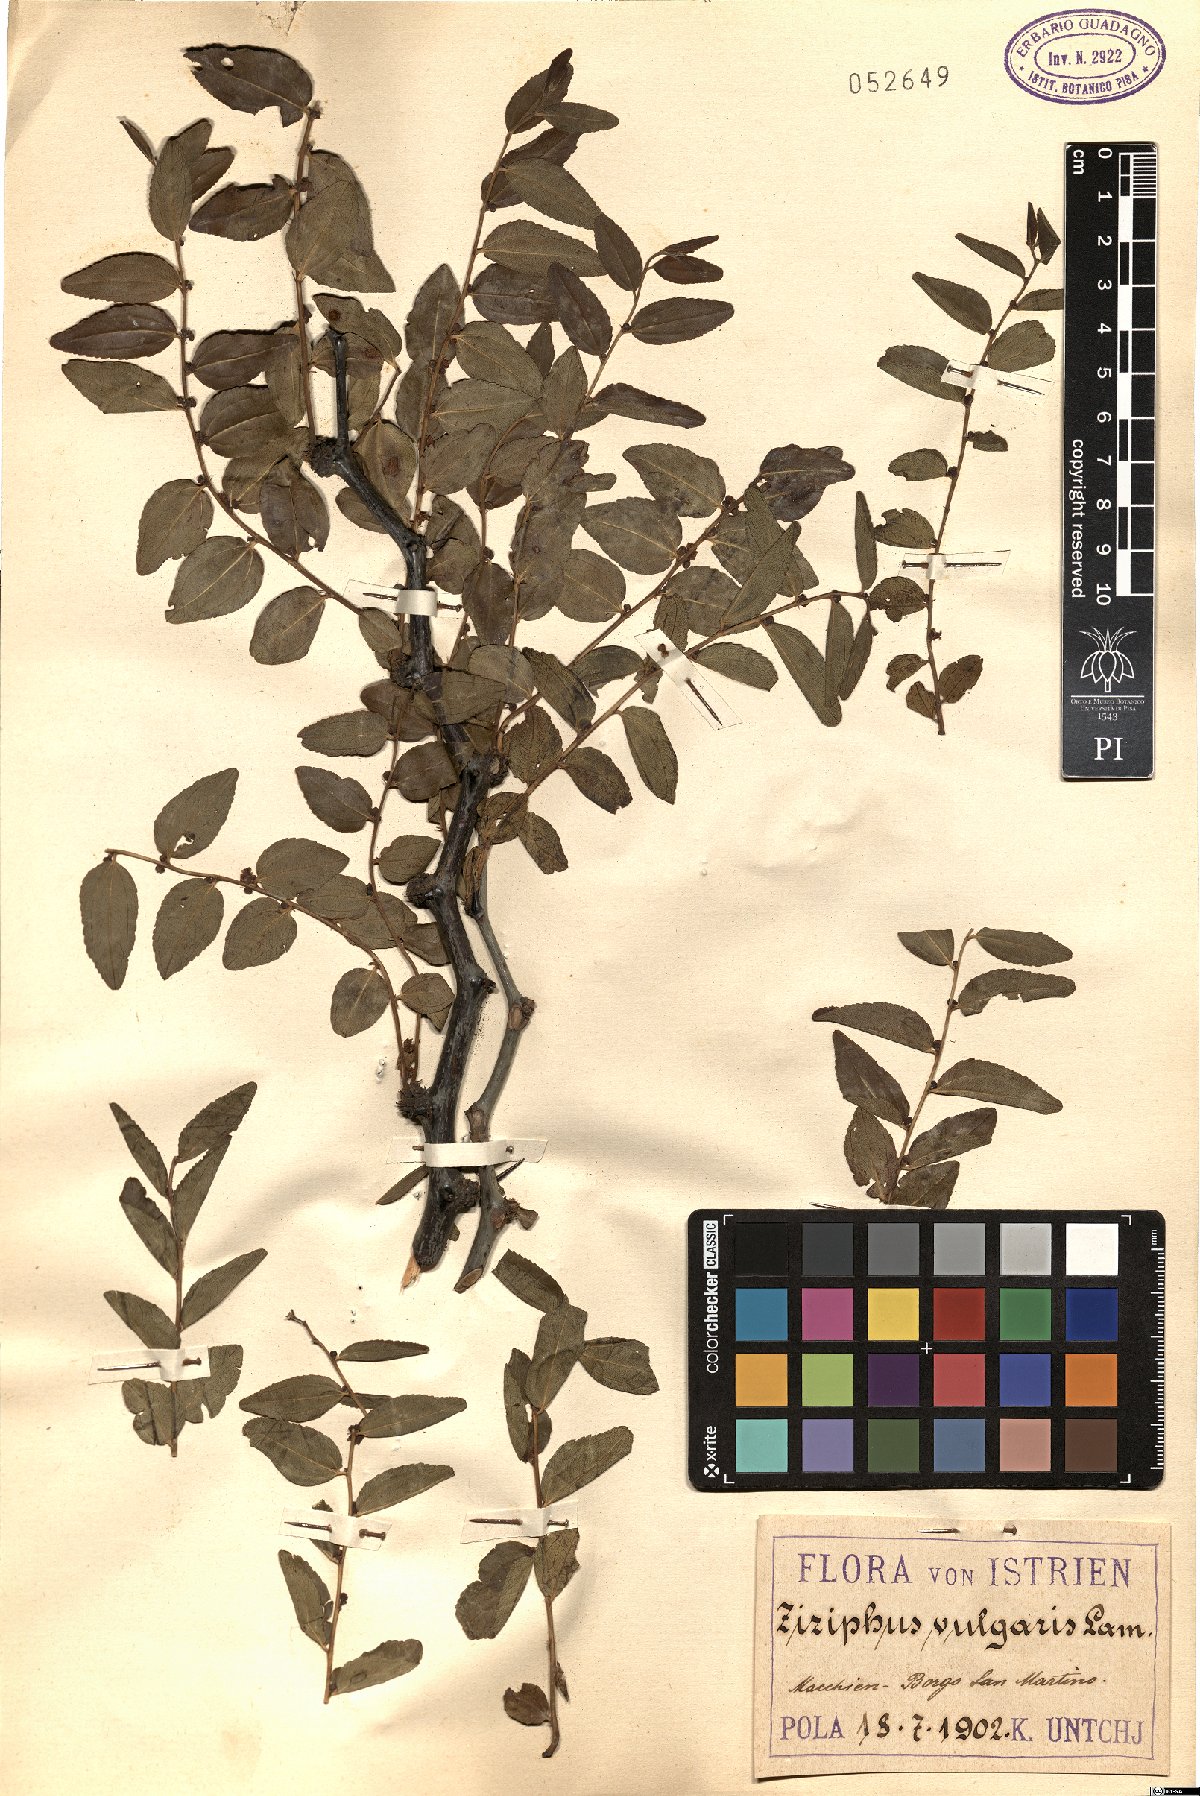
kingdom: Plantae
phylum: Tracheophyta
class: Magnoliopsida
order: Rosales
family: Rhamnaceae
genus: Ziziphus
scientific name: Ziziphus jujuba
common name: Jujube red date
